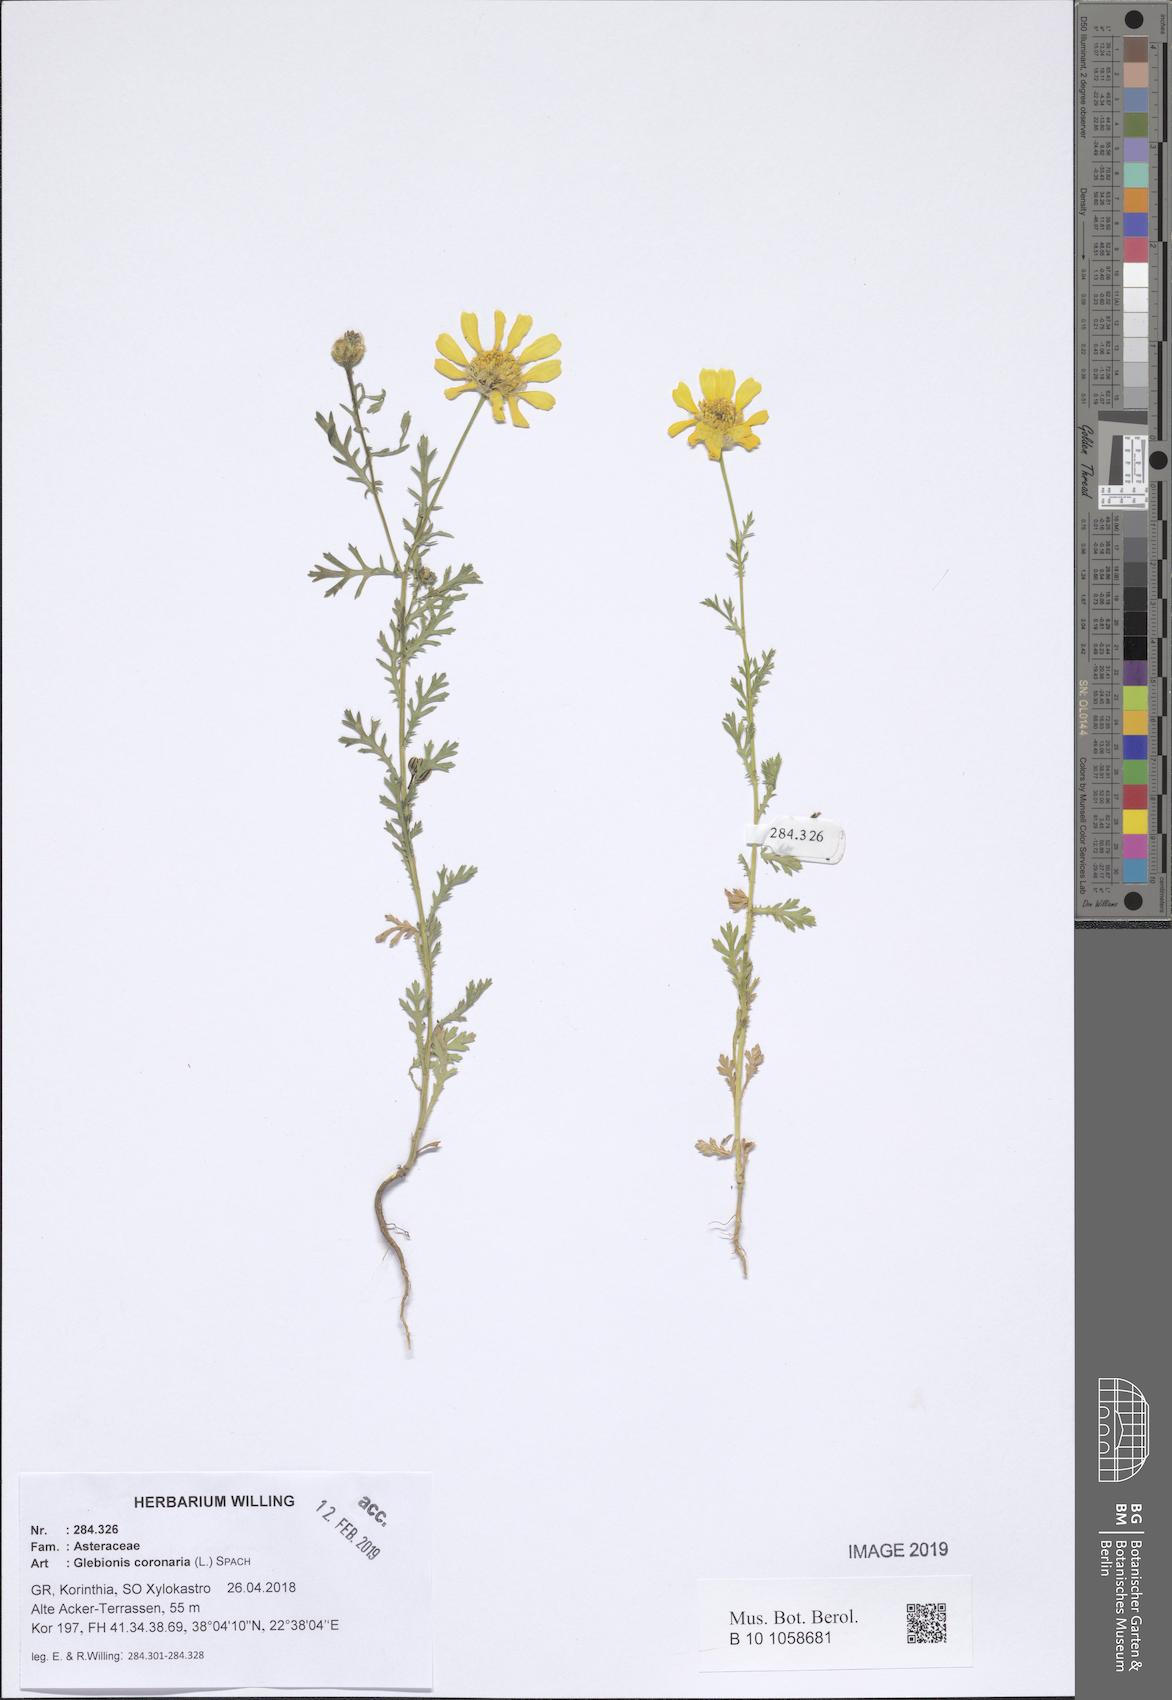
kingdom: Plantae
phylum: Tracheophyta
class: Magnoliopsida
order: Asterales
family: Asteraceae
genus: Glebionis
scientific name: Glebionis coronaria
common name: Crowndaisy
